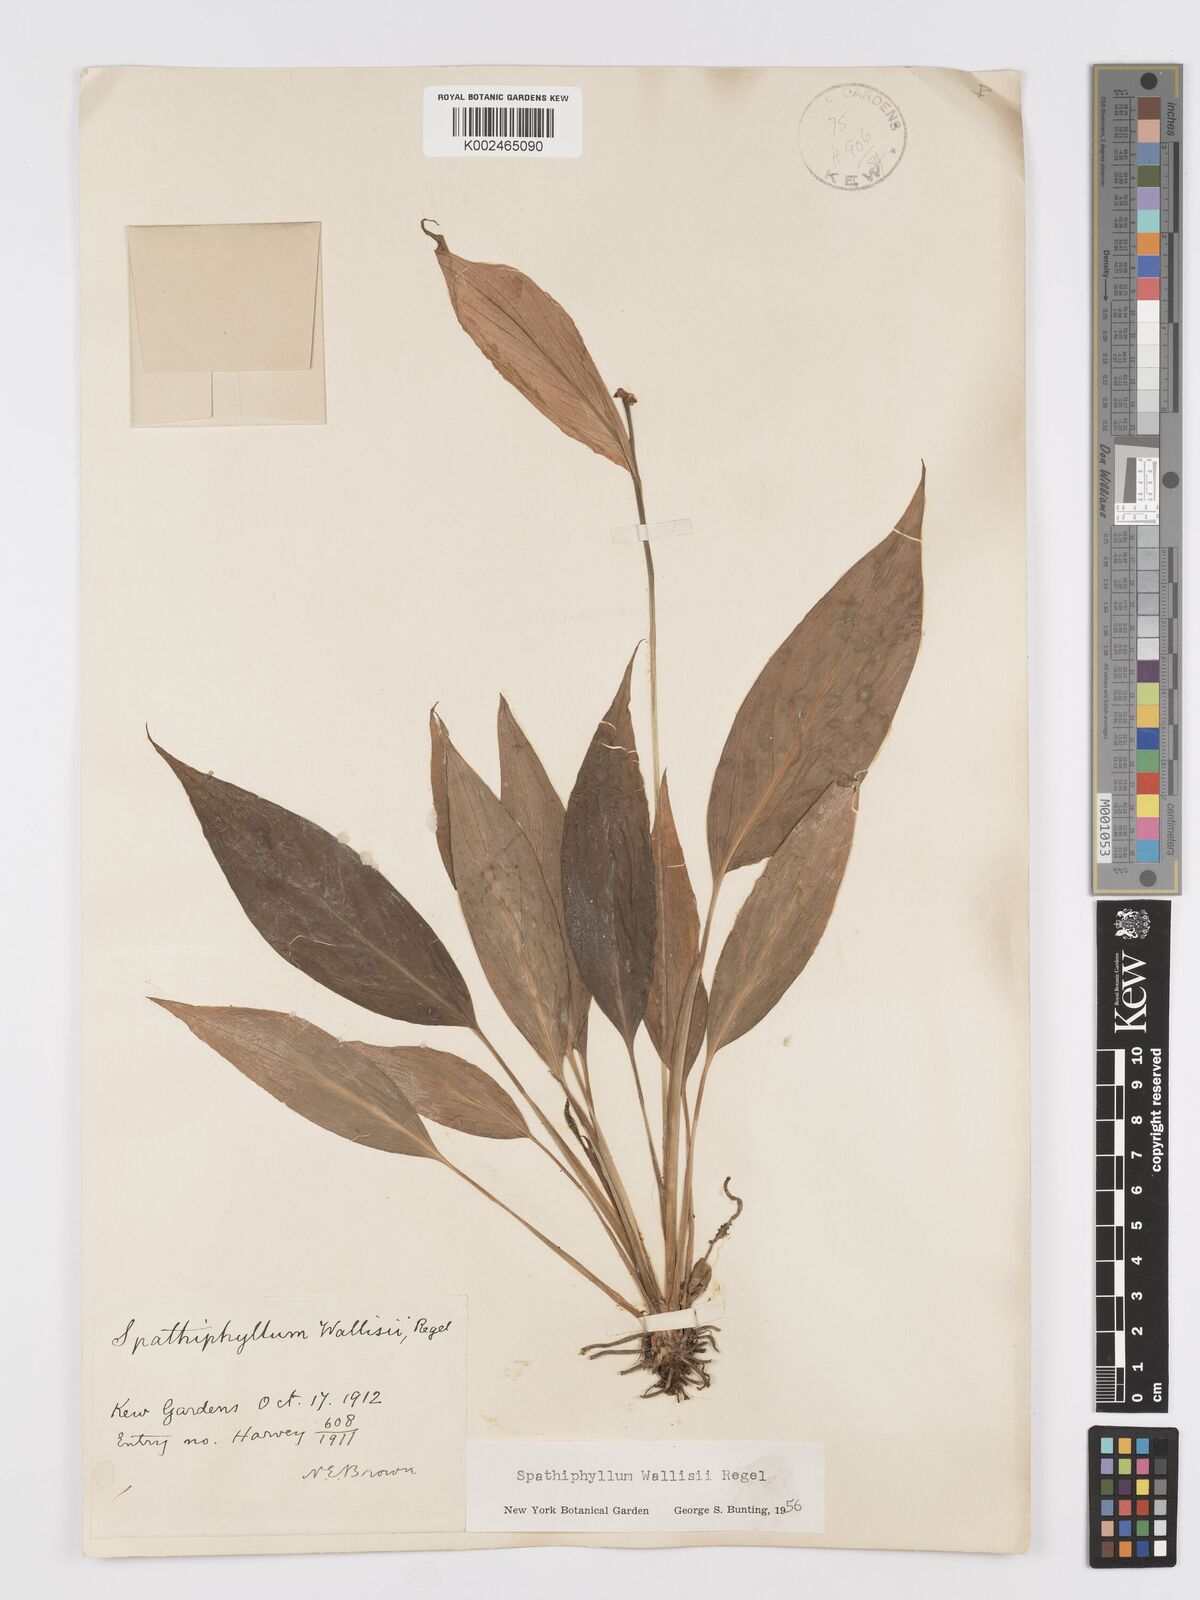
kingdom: Plantae
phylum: Tracheophyta
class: Liliopsida
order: Alismatales
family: Araceae
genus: Spathiphyllum
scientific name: Spathiphyllum wallisii
